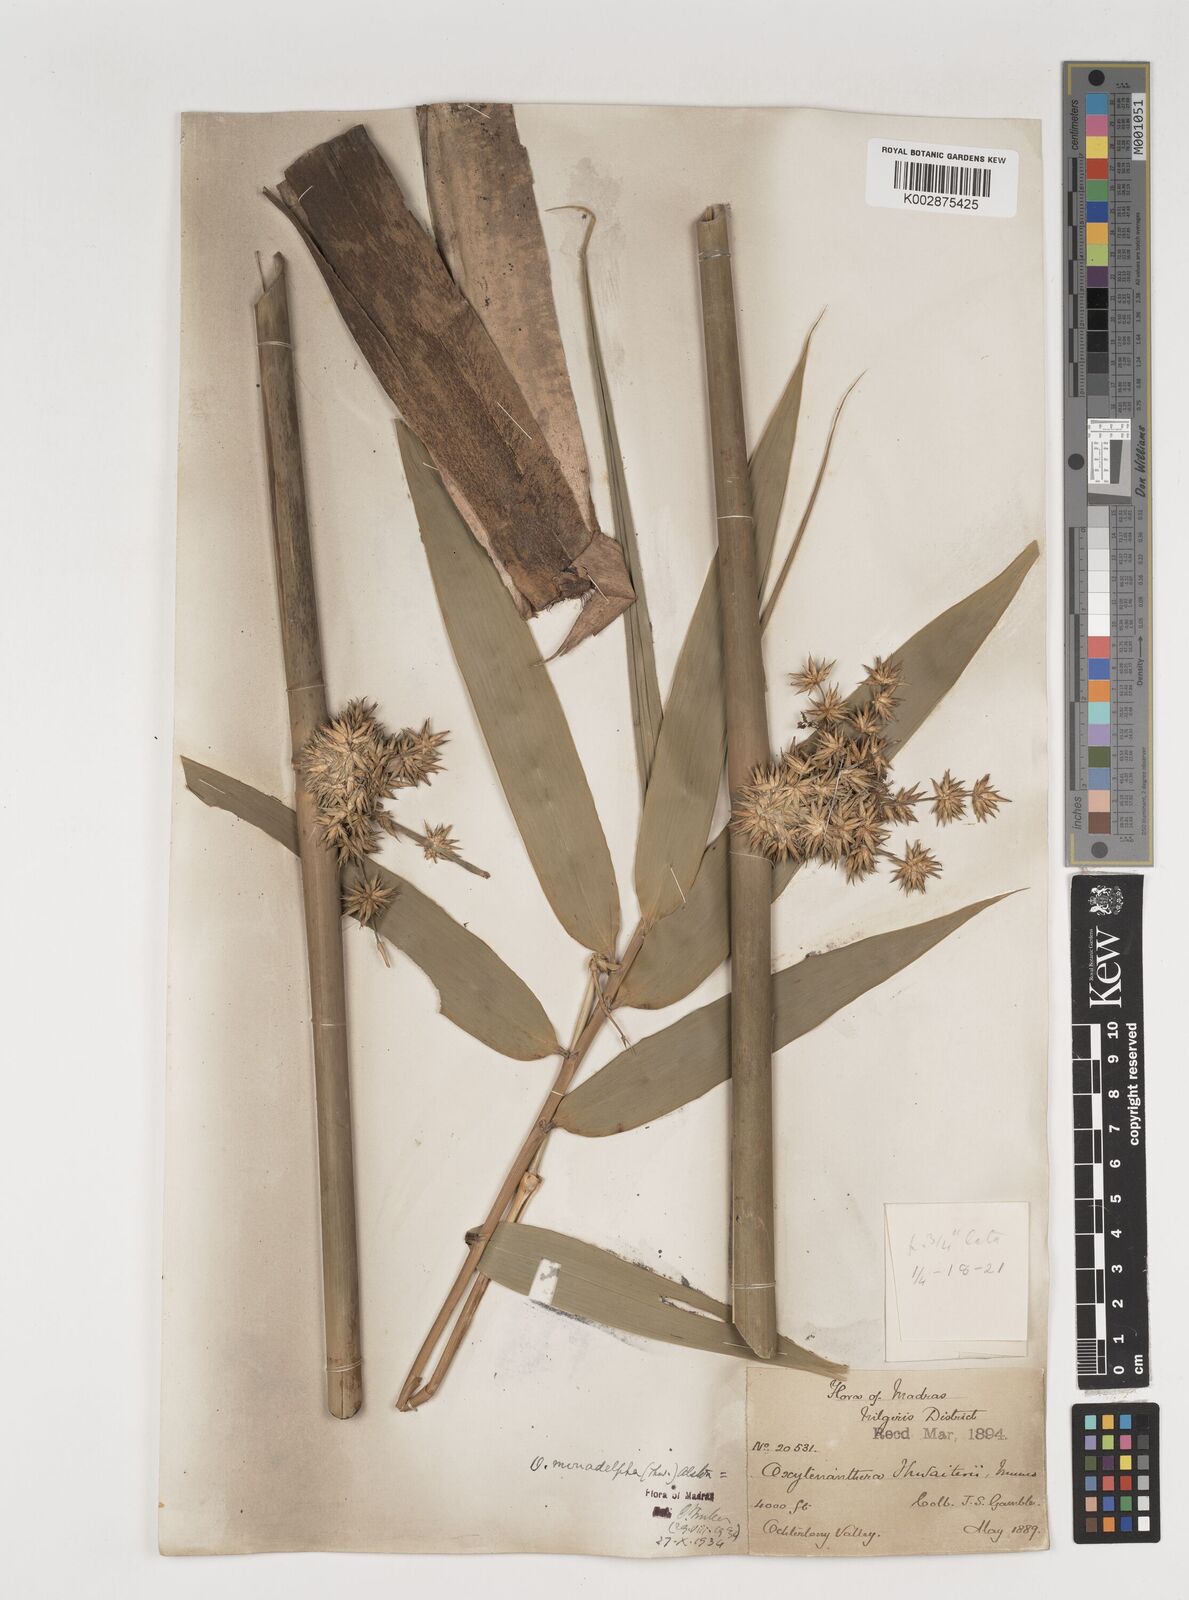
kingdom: Plantae
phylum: Tracheophyta
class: Liliopsida
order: Poales
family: Poaceae
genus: Pseudoxytenanthera
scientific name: Pseudoxytenanthera monadelpha
